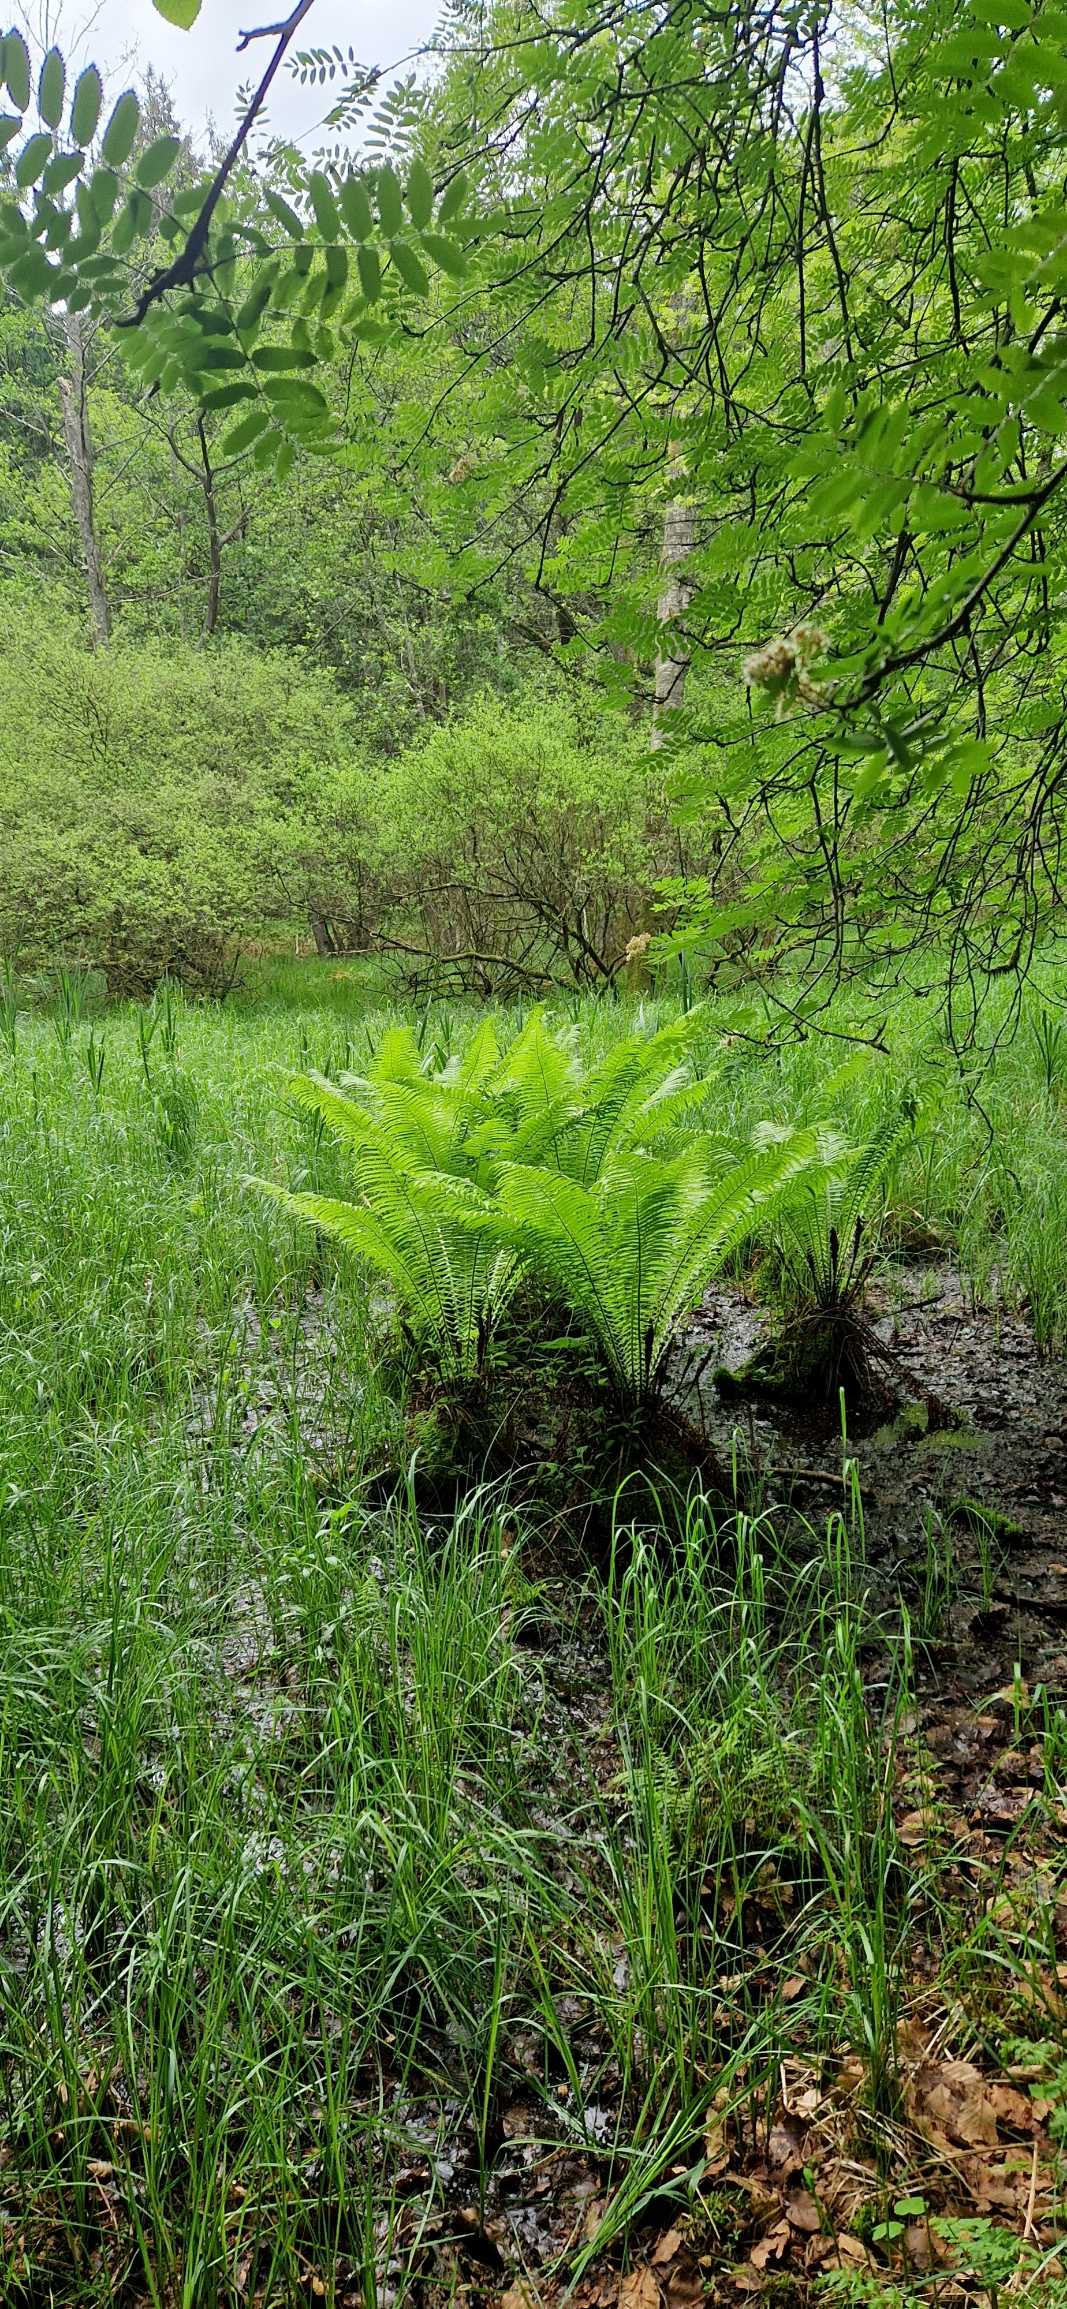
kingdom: Plantae
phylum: Tracheophyta
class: Polypodiopsida
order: Polypodiales
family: Onocleaceae
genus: Matteuccia
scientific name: Matteuccia struthiopteris
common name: Strudsvinge
